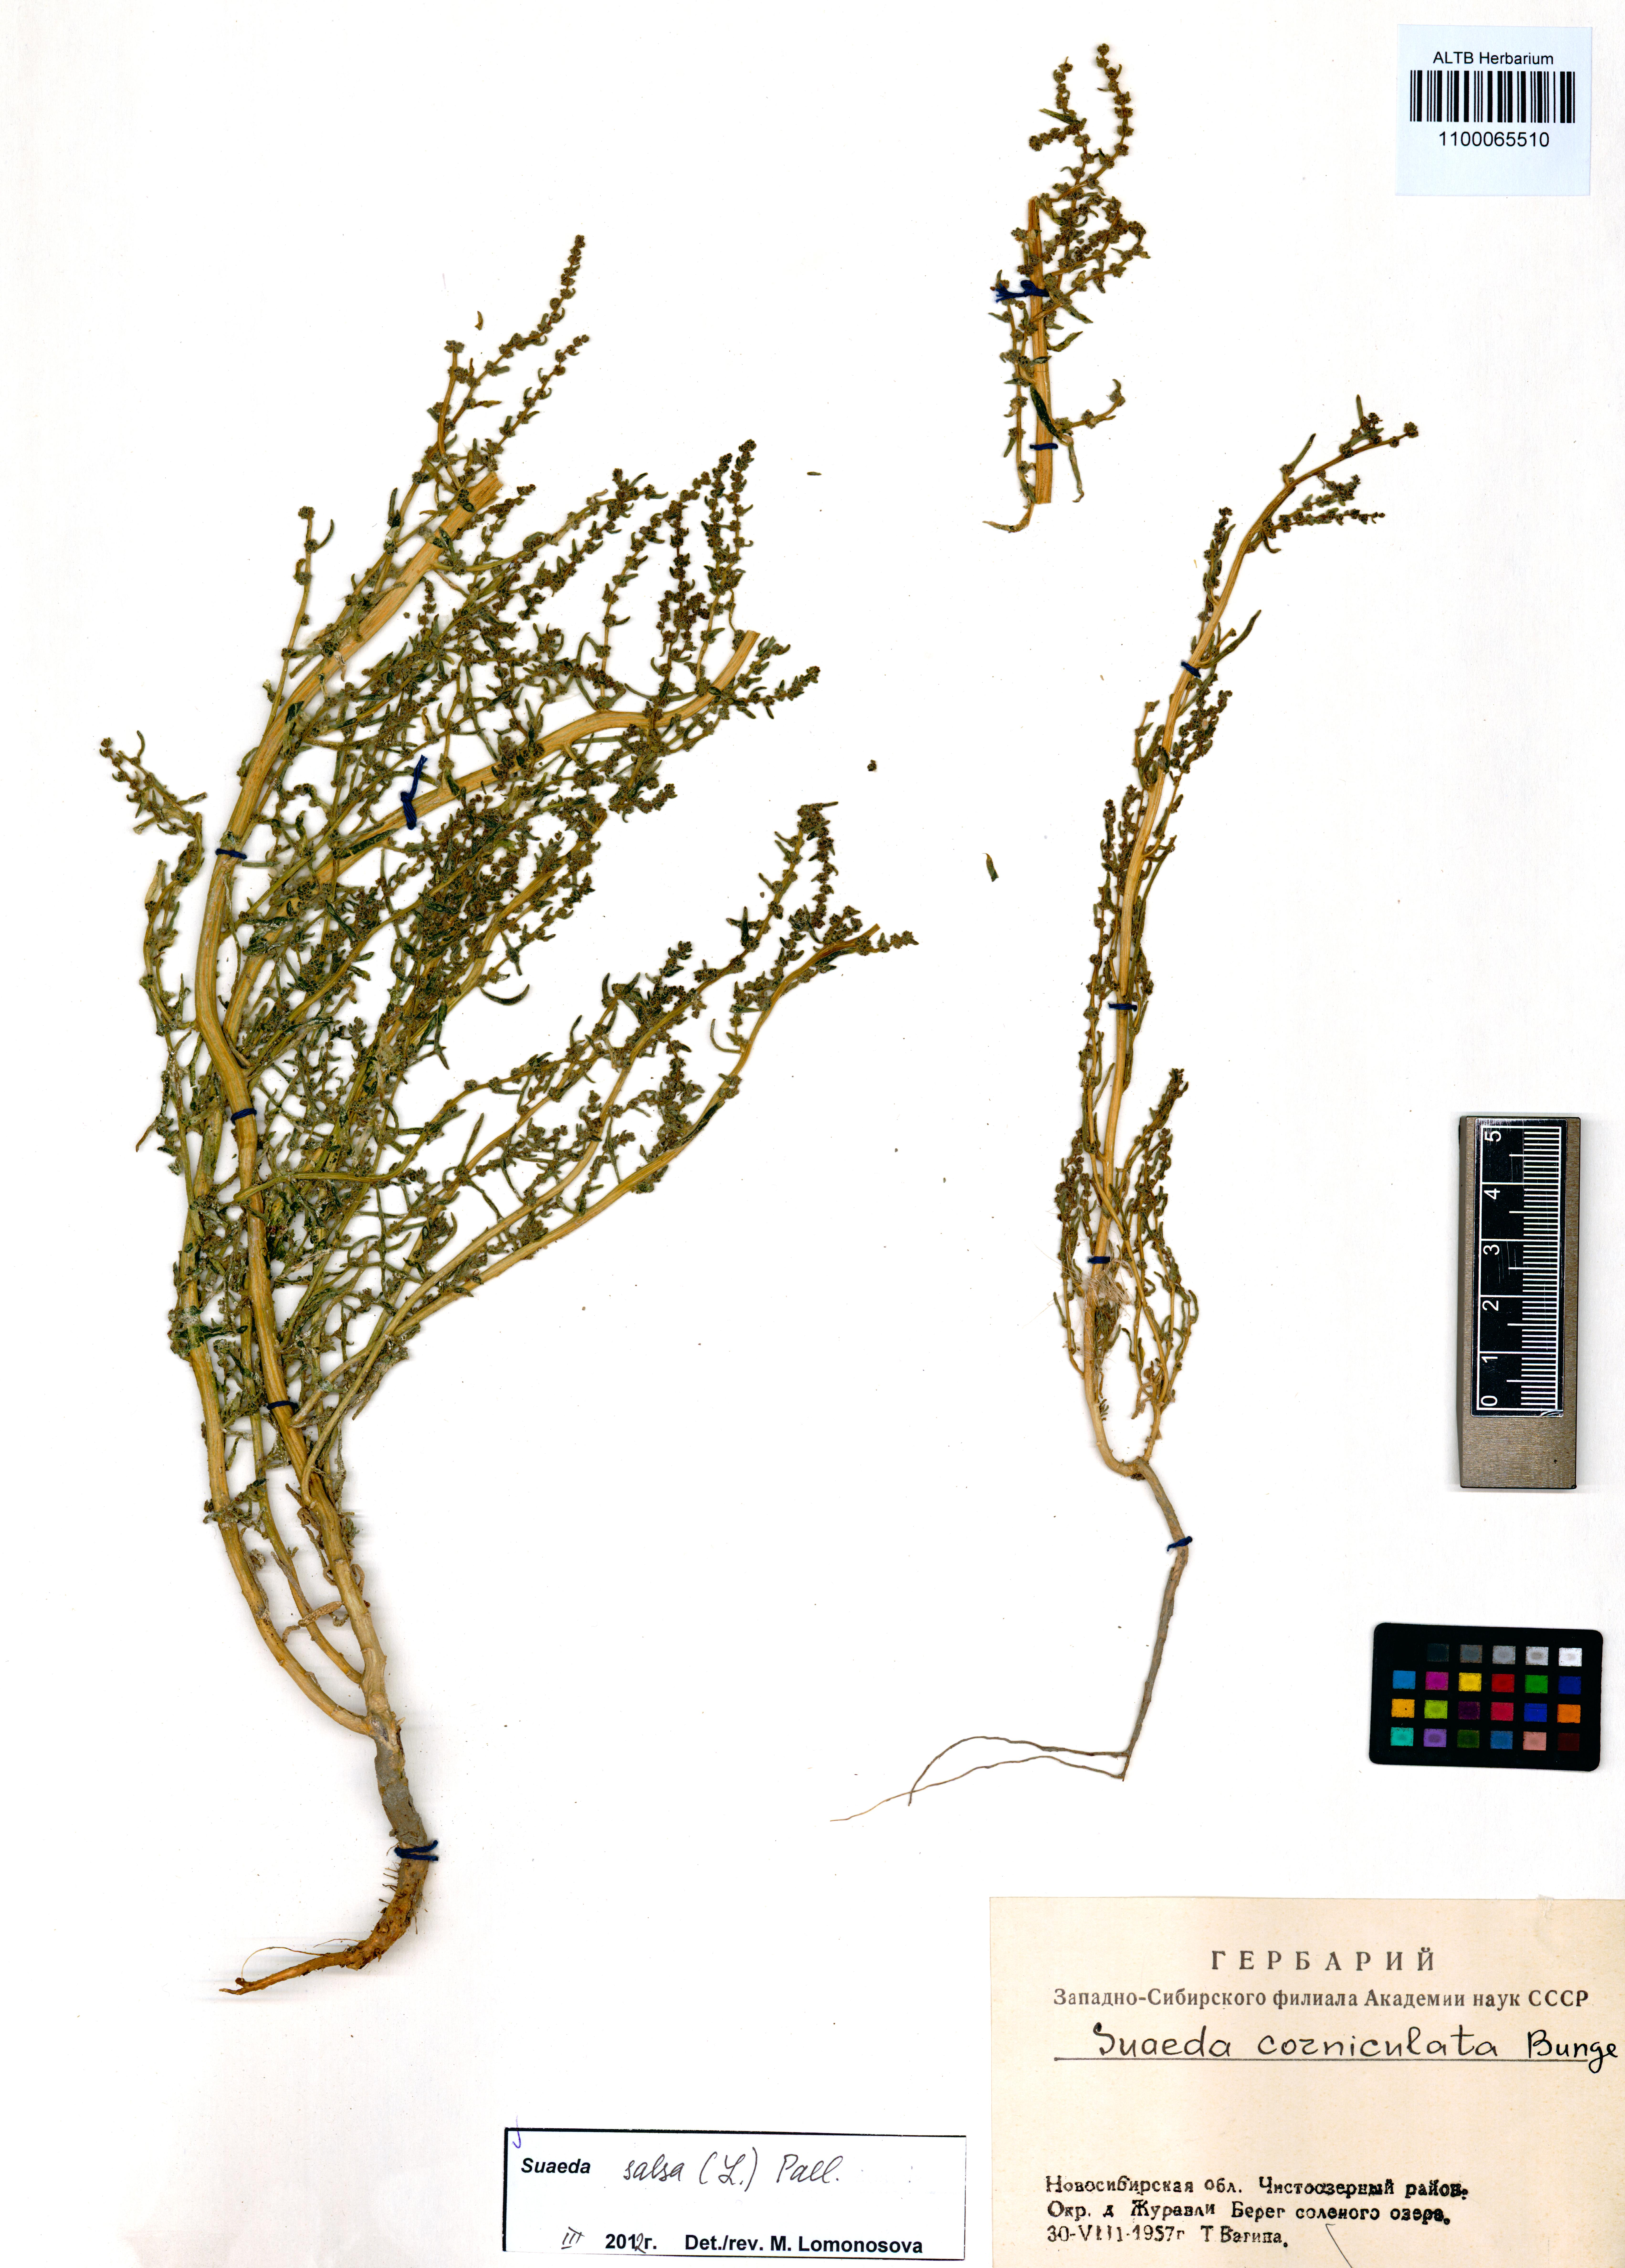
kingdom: Plantae
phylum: Tracheophyta
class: Magnoliopsida
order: Caryophyllales
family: Amaranthaceae
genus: Suaeda
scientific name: Suaeda salsa
